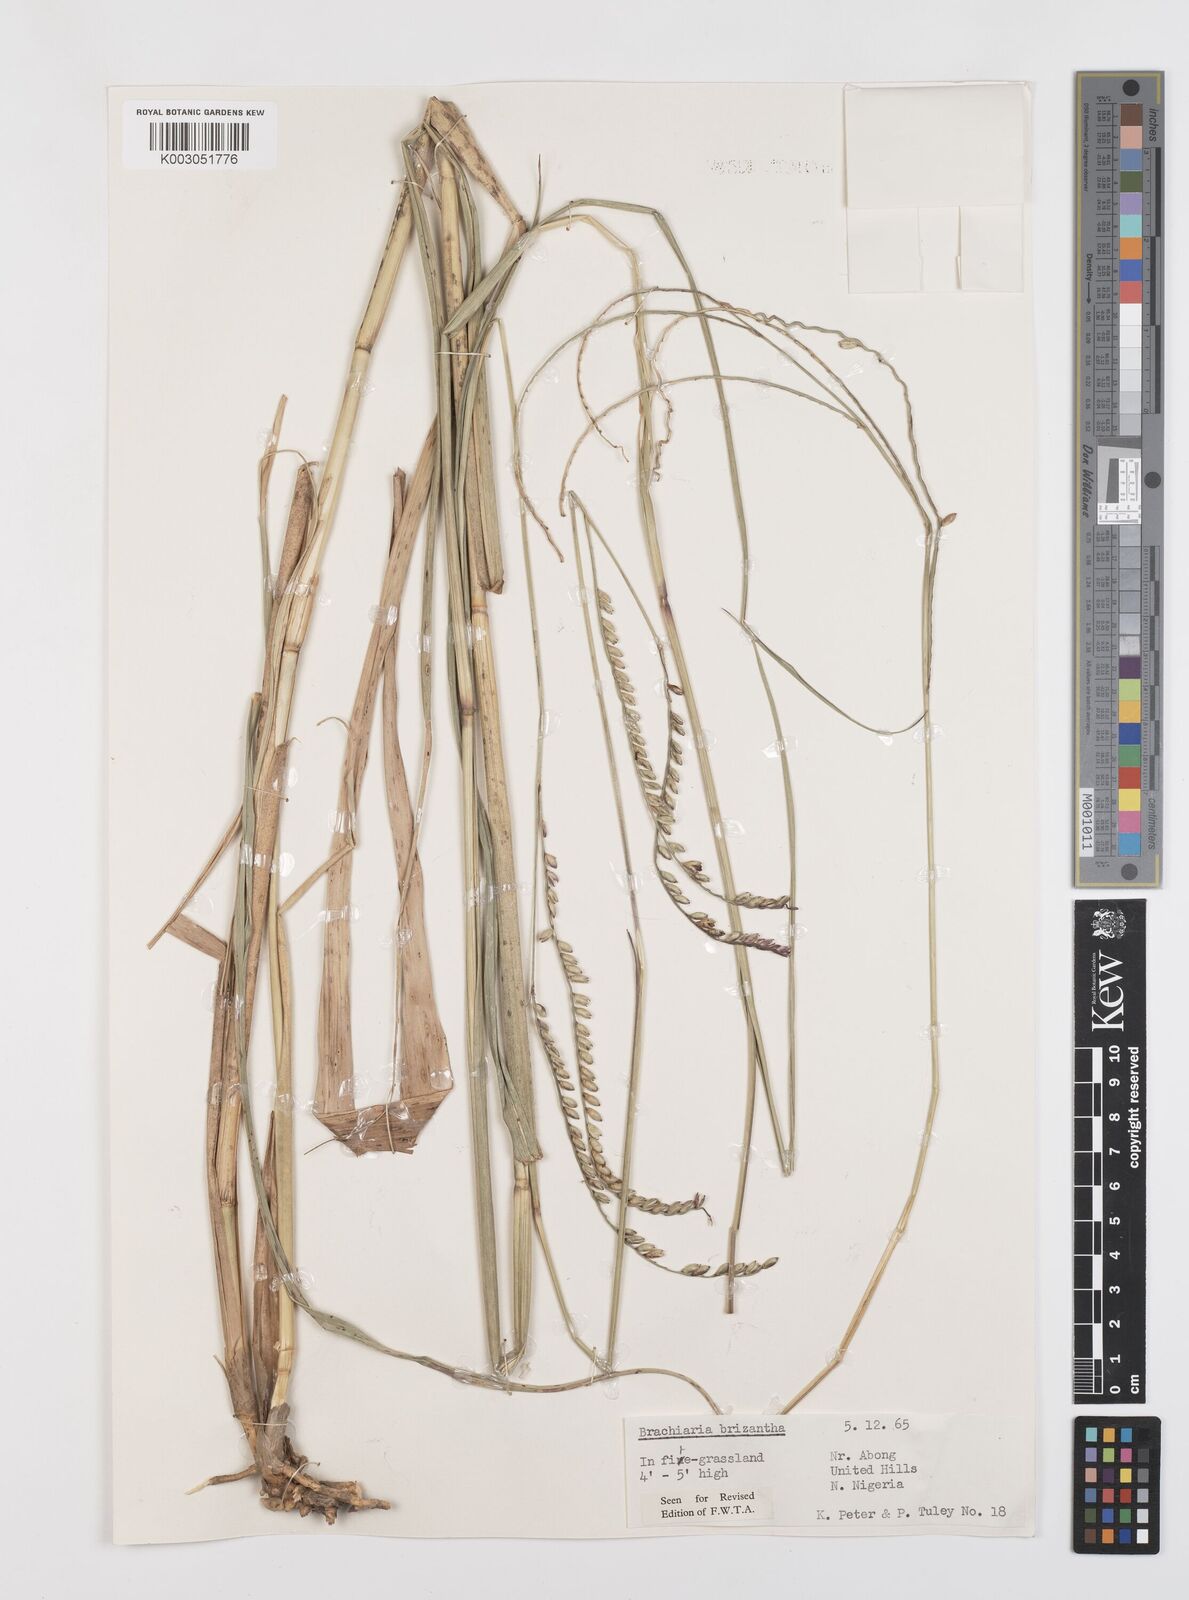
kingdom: Plantae
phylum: Tracheophyta
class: Liliopsida
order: Poales
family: Poaceae
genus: Urochloa
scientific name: Urochloa brizantha
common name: Palisade signalgrass
